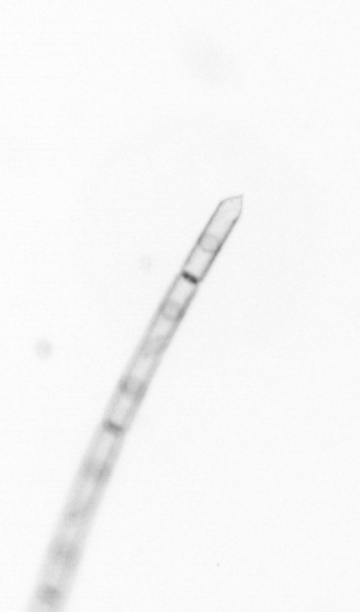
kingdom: Chromista
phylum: Ochrophyta
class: Bacillariophyceae
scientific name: Bacillariophyceae
